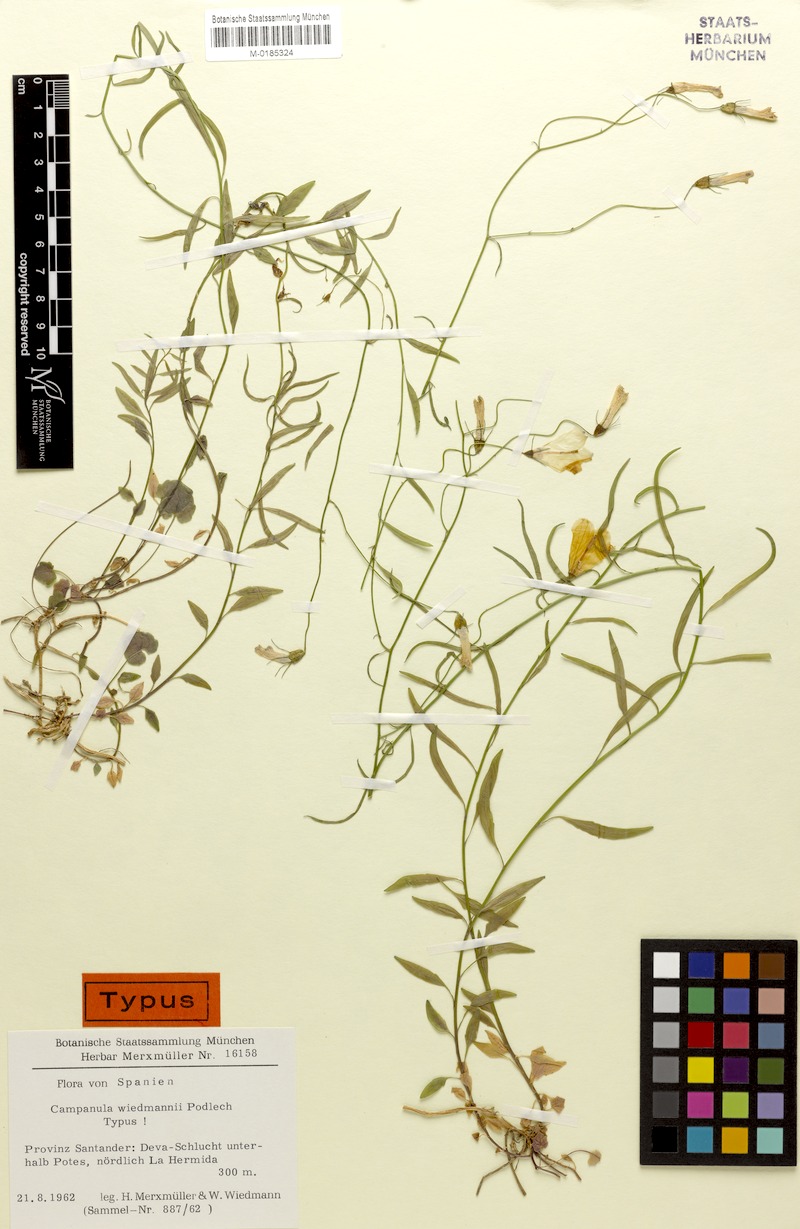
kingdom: Plantae
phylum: Tracheophyta
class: Magnoliopsida
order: Asterales
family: Campanulaceae
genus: Campanula
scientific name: Campanula rotundifolia
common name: Harebell
